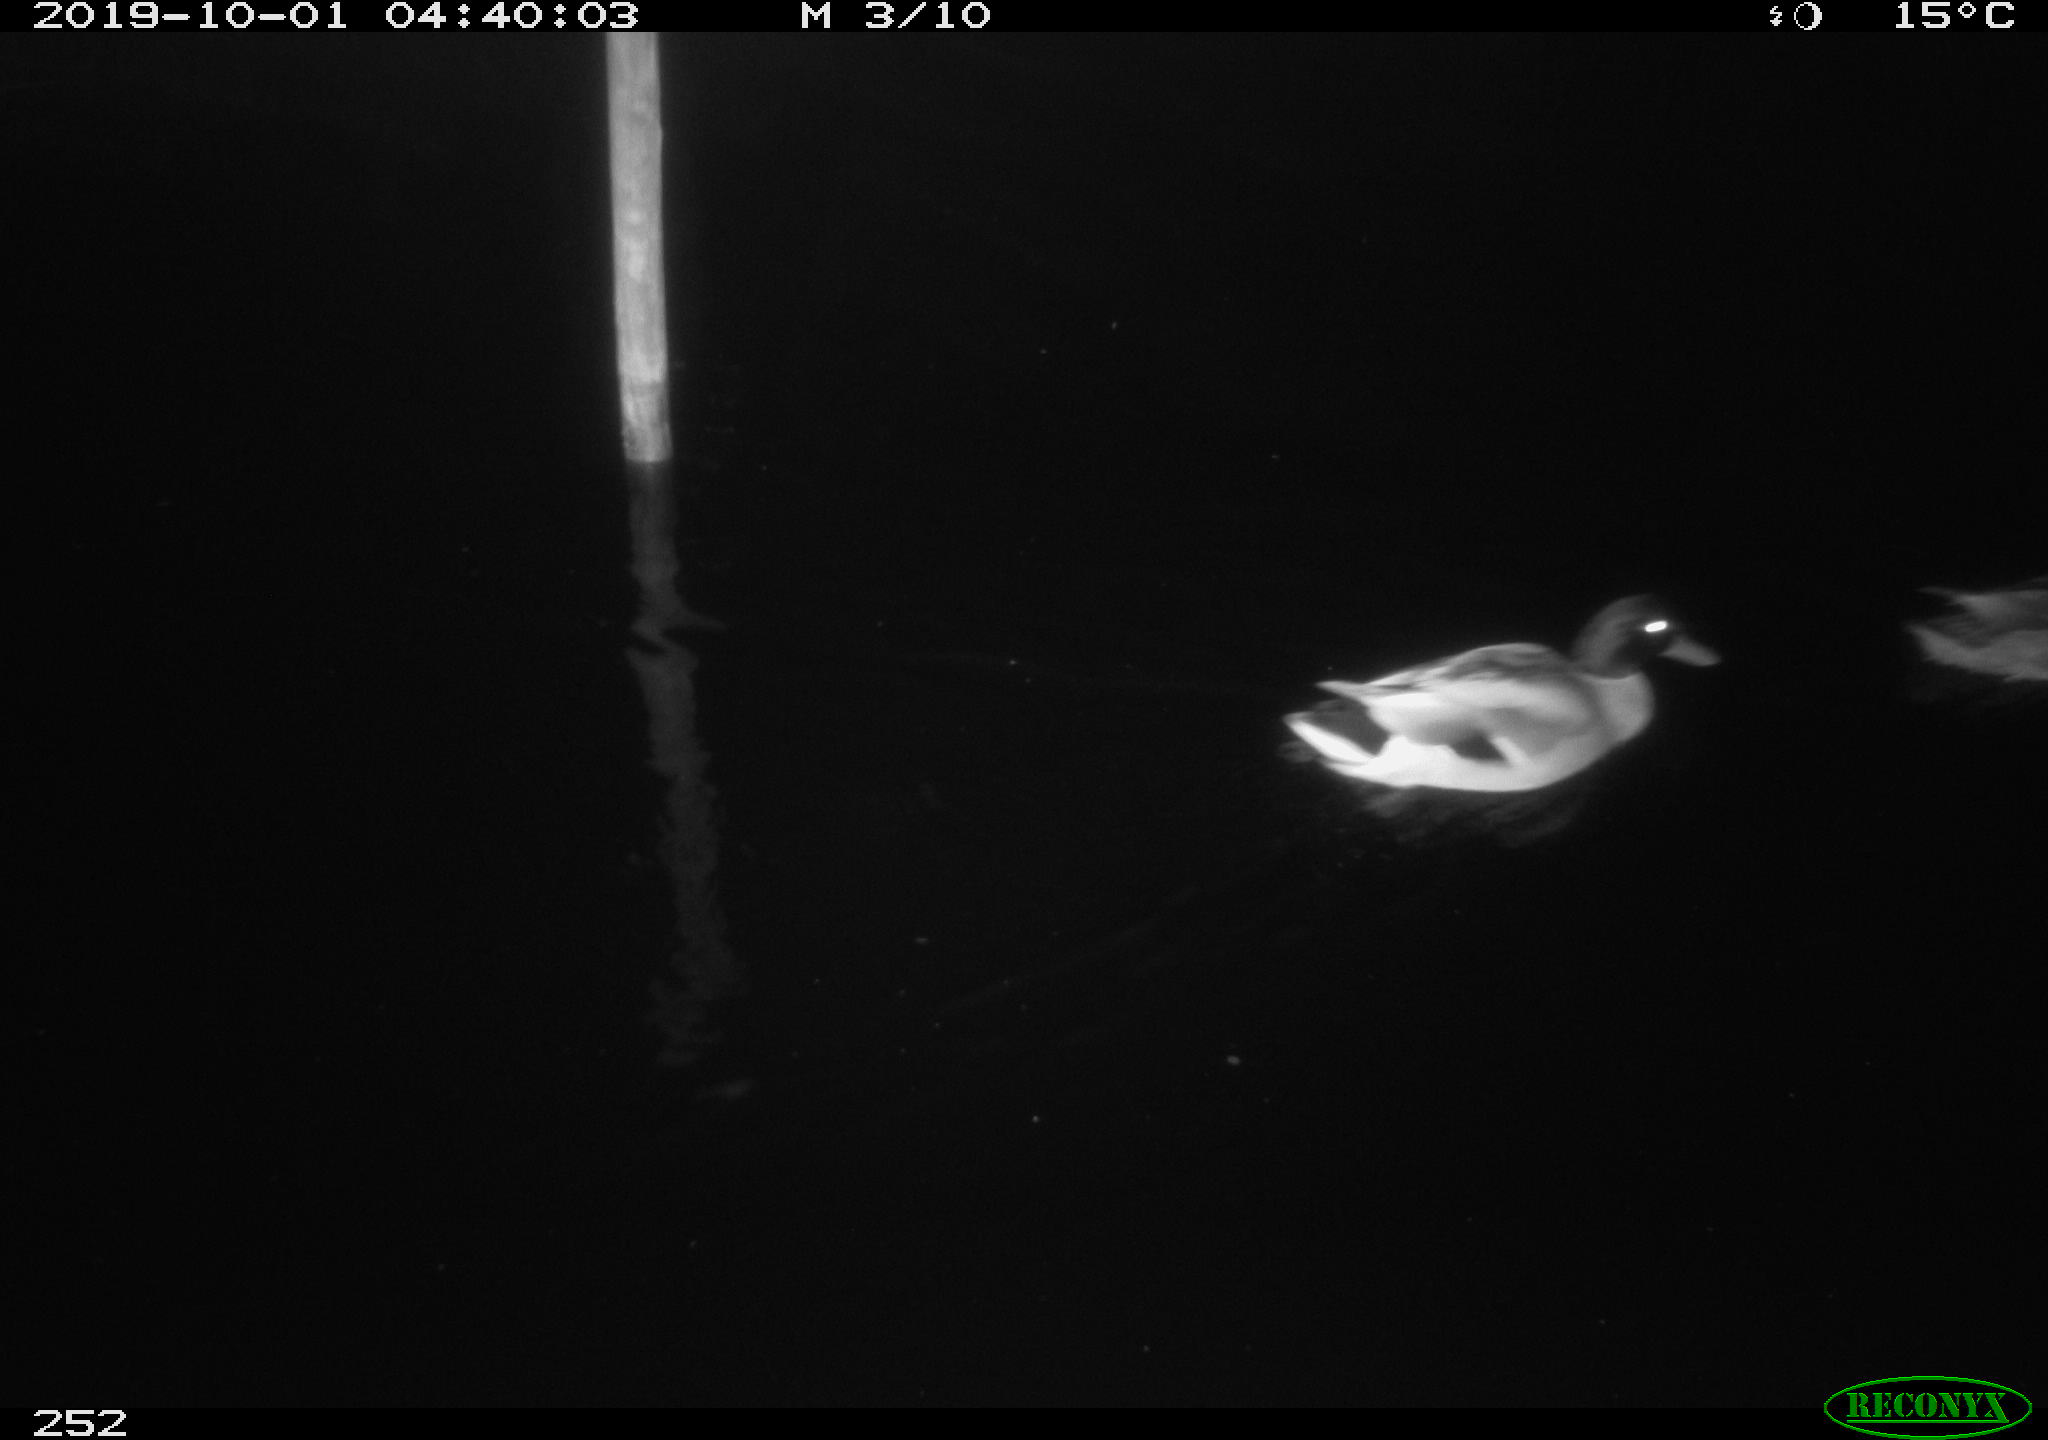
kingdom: Animalia
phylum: Chordata
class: Aves
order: Anseriformes
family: Anatidae
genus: Anas
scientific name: Anas platyrhynchos
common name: Mallard
